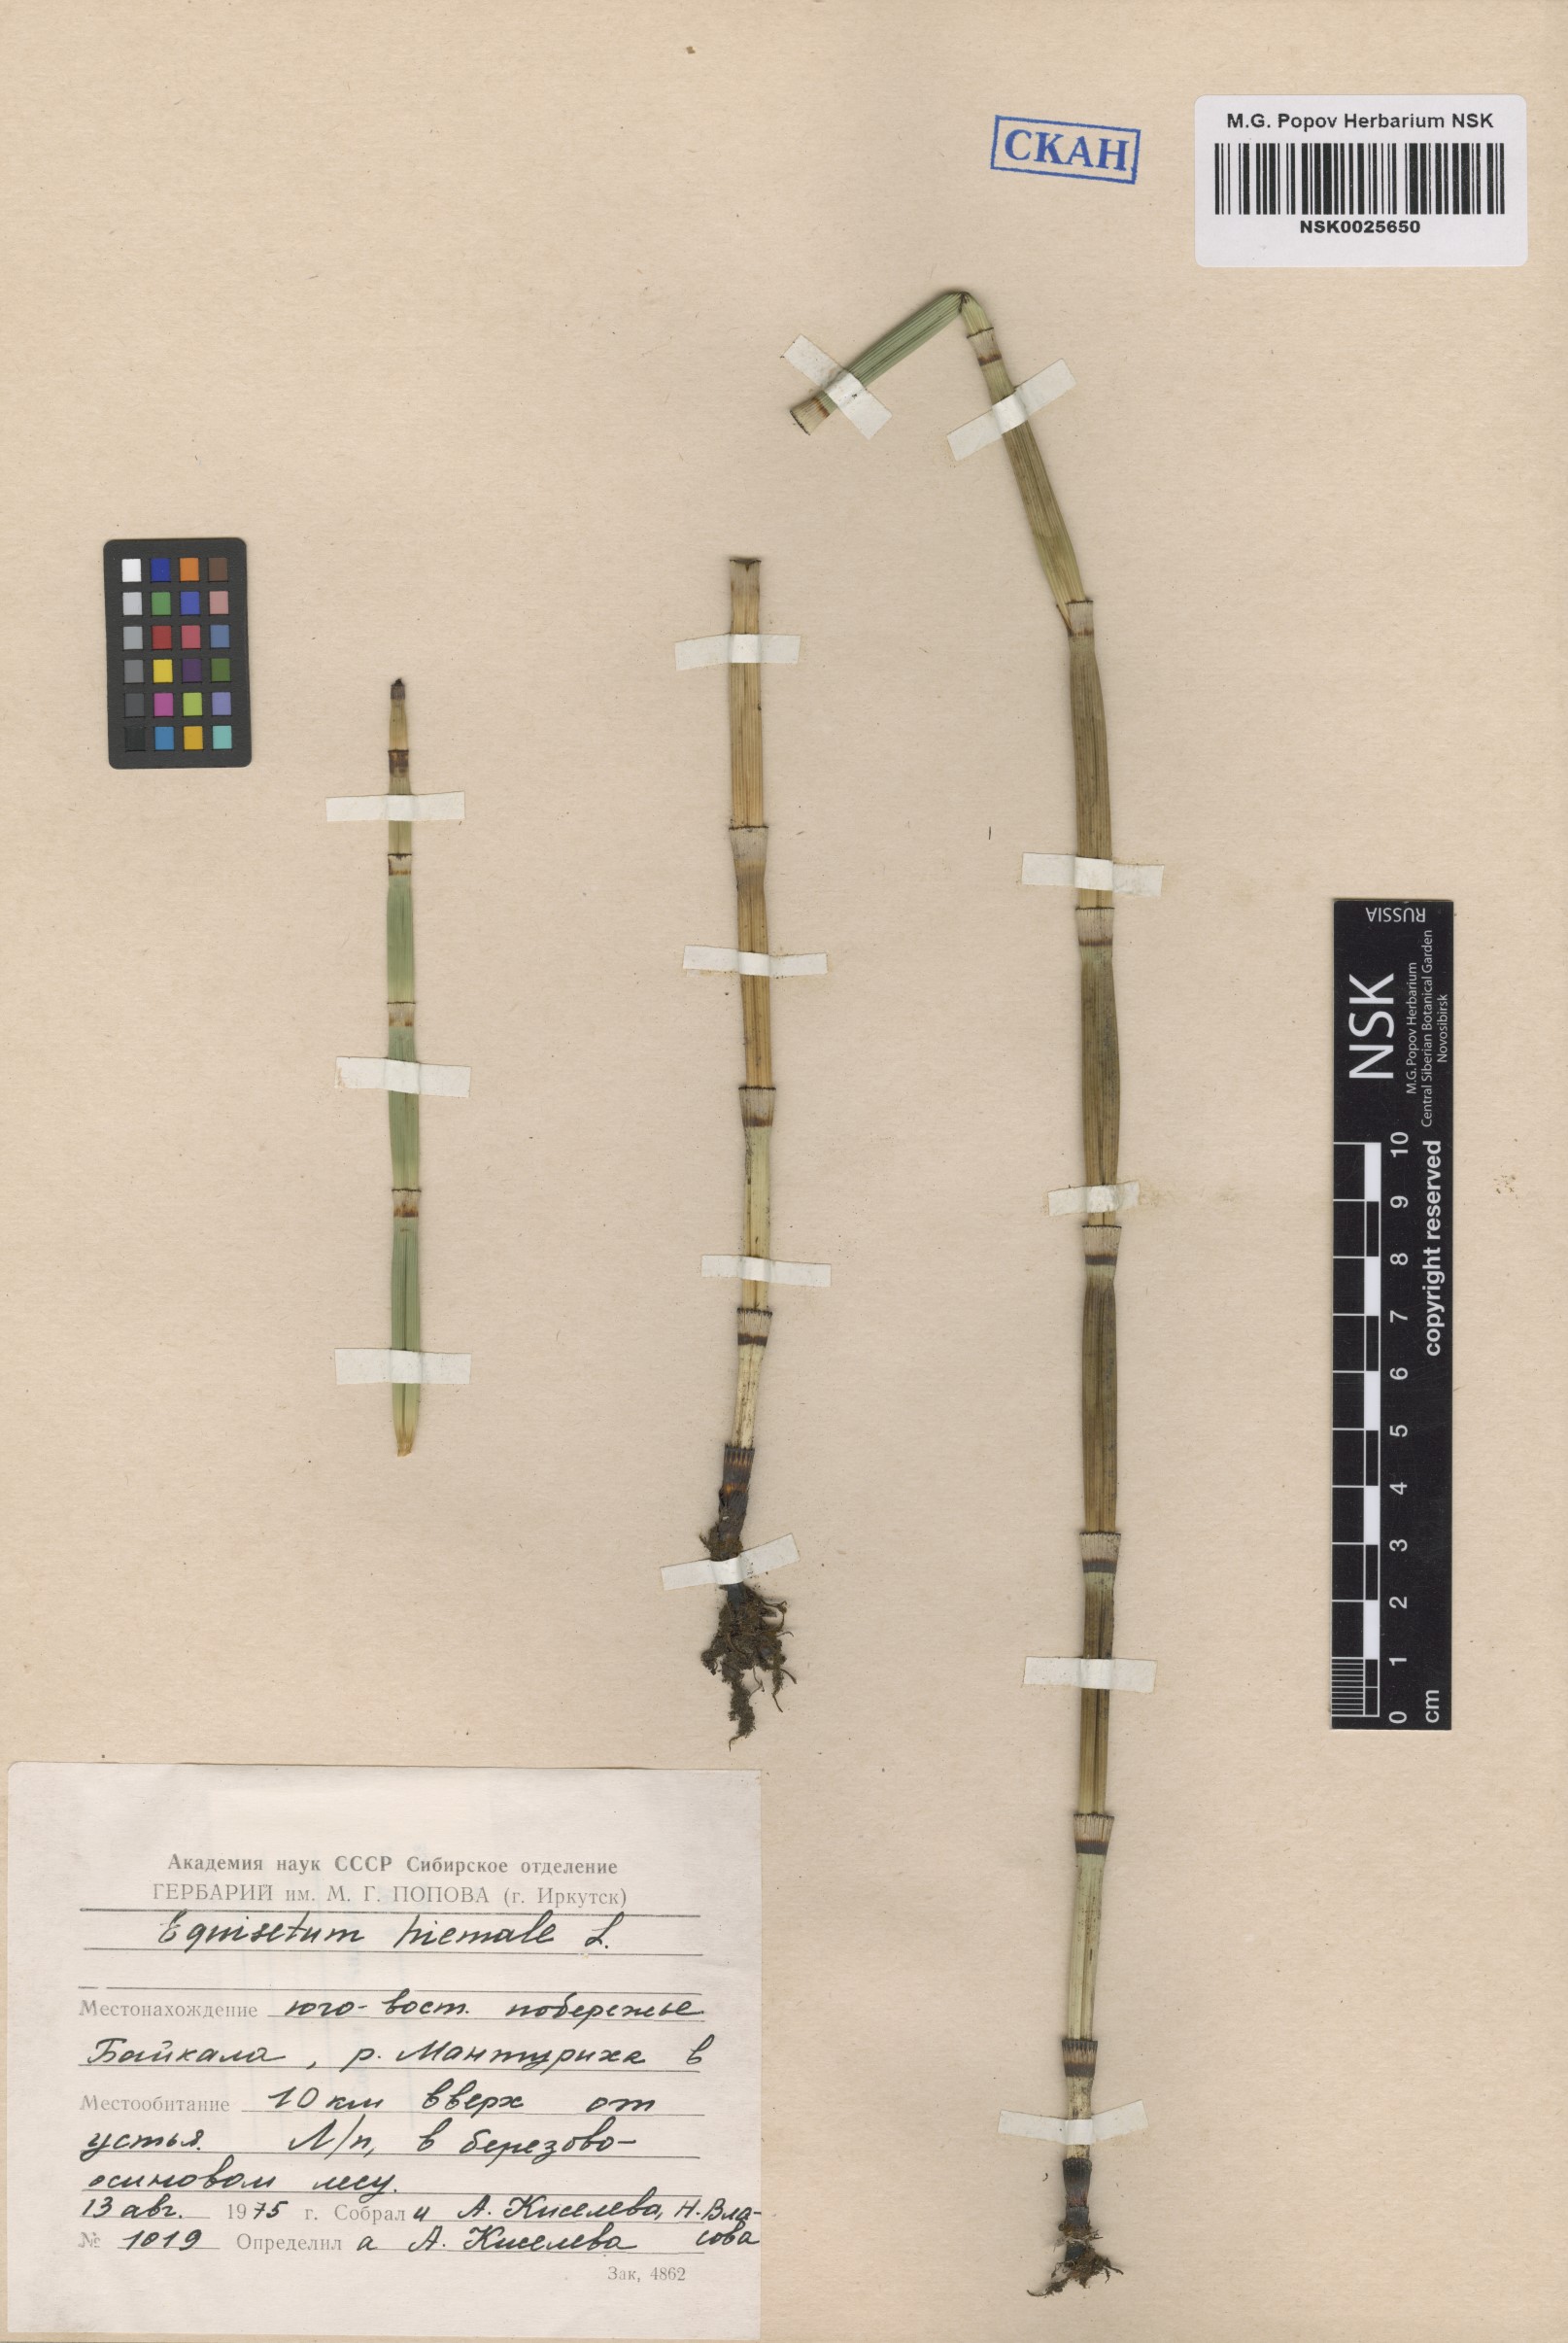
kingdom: Plantae
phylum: Tracheophyta
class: Polypodiopsida
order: Equisetales
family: Equisetaceae
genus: Equisetum
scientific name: Equisetum hyemale
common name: Rough horsetail
